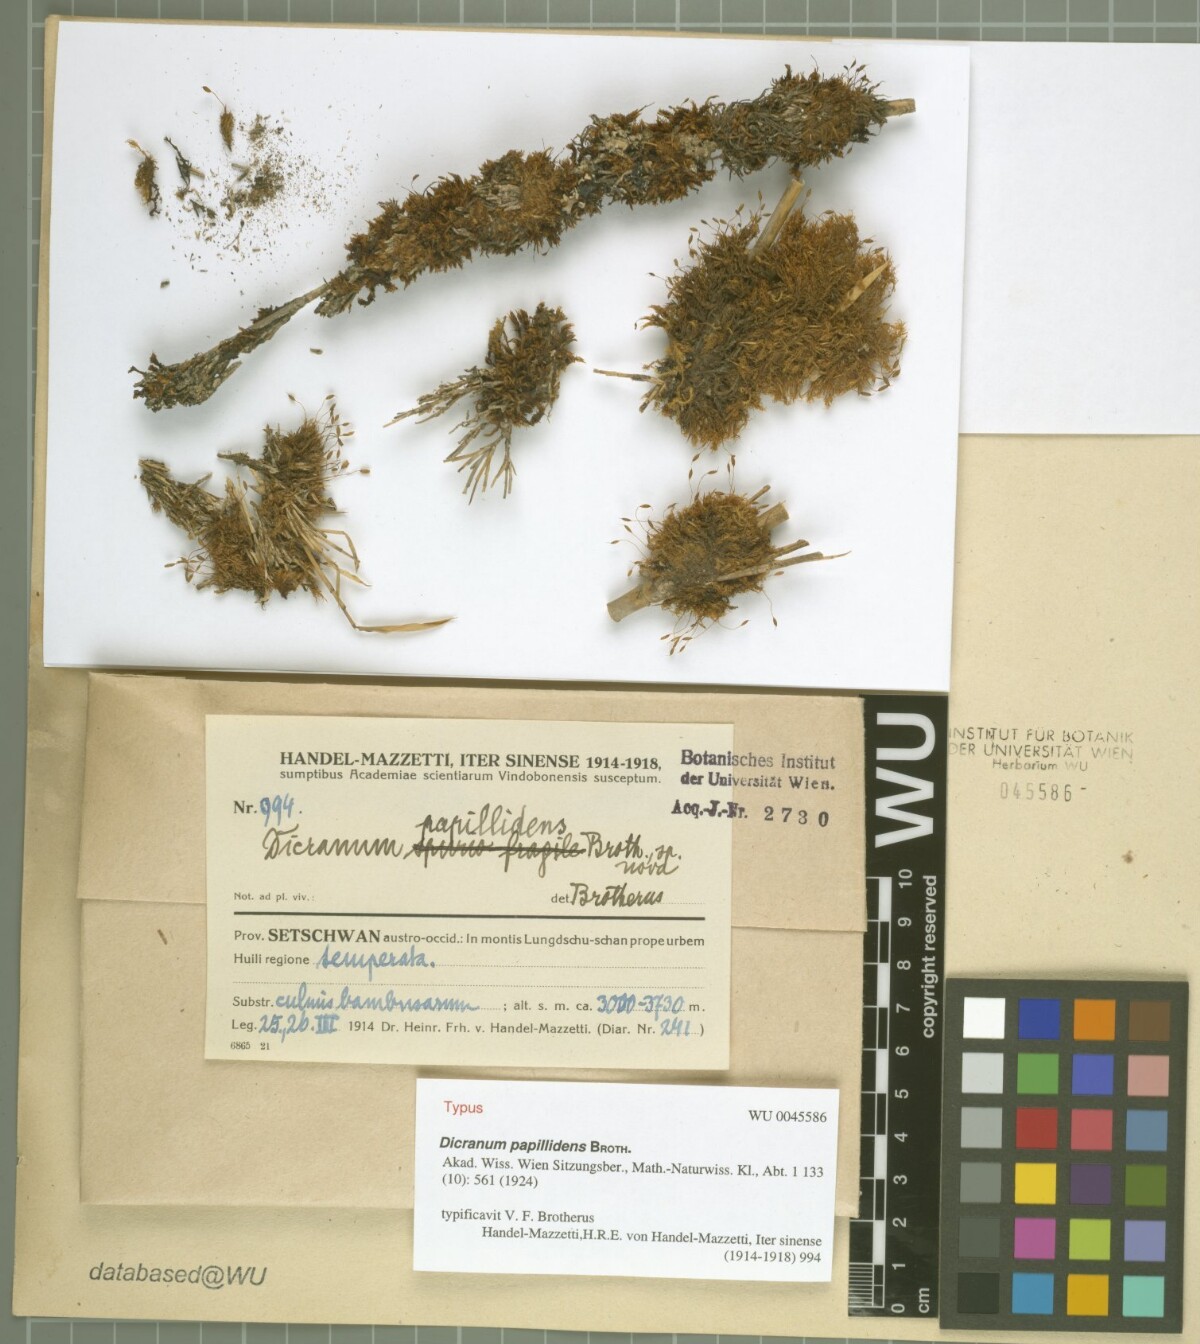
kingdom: Plantae
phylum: Bryophyta
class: Bryopsida
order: Dicranales
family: Dicranaceae
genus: Dicranum
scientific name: Dicranum papillidens
